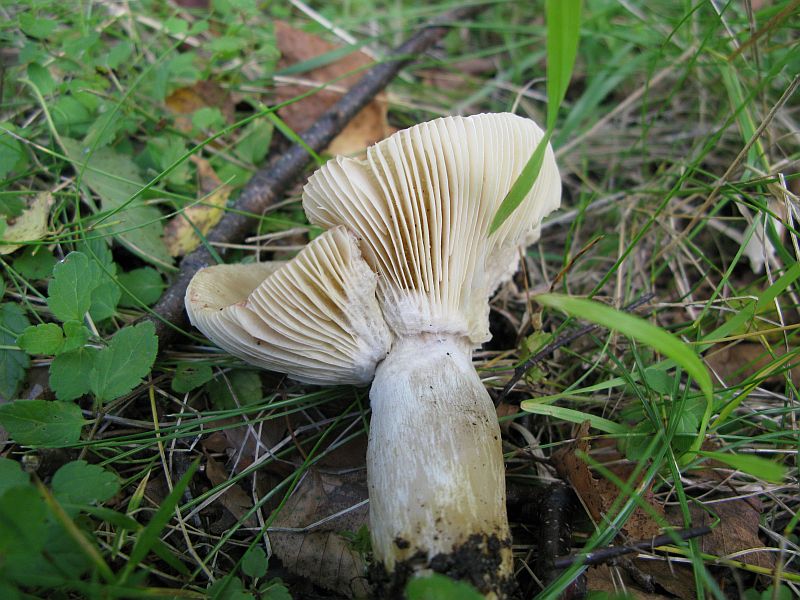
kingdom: Fungi
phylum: Basidiomycota
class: Agaricomycetes
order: Russulales
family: Russulaceae
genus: Russula
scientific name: Russula depallens
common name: falmende skørhat
